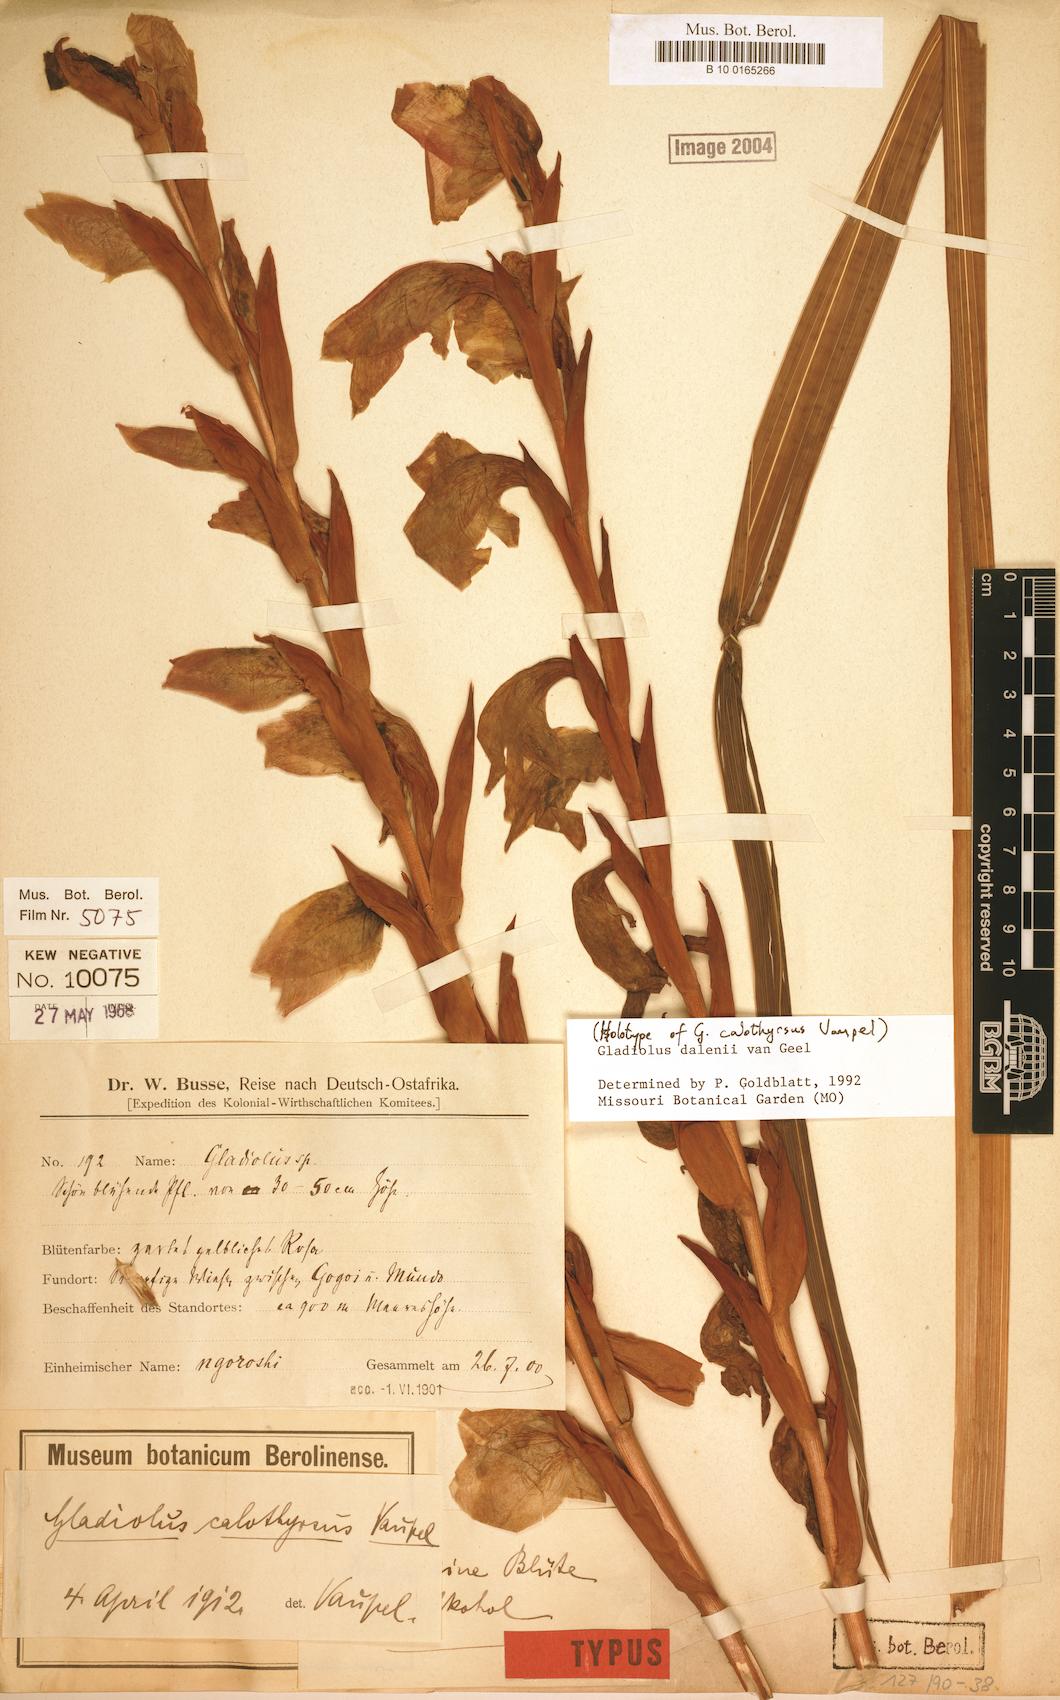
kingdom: Plantae
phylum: Tracheophyta
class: Liliopsida
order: Asparagales
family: Iridaceae
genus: Gladiolus
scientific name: Gladiolus dalenii
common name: Cornflag
